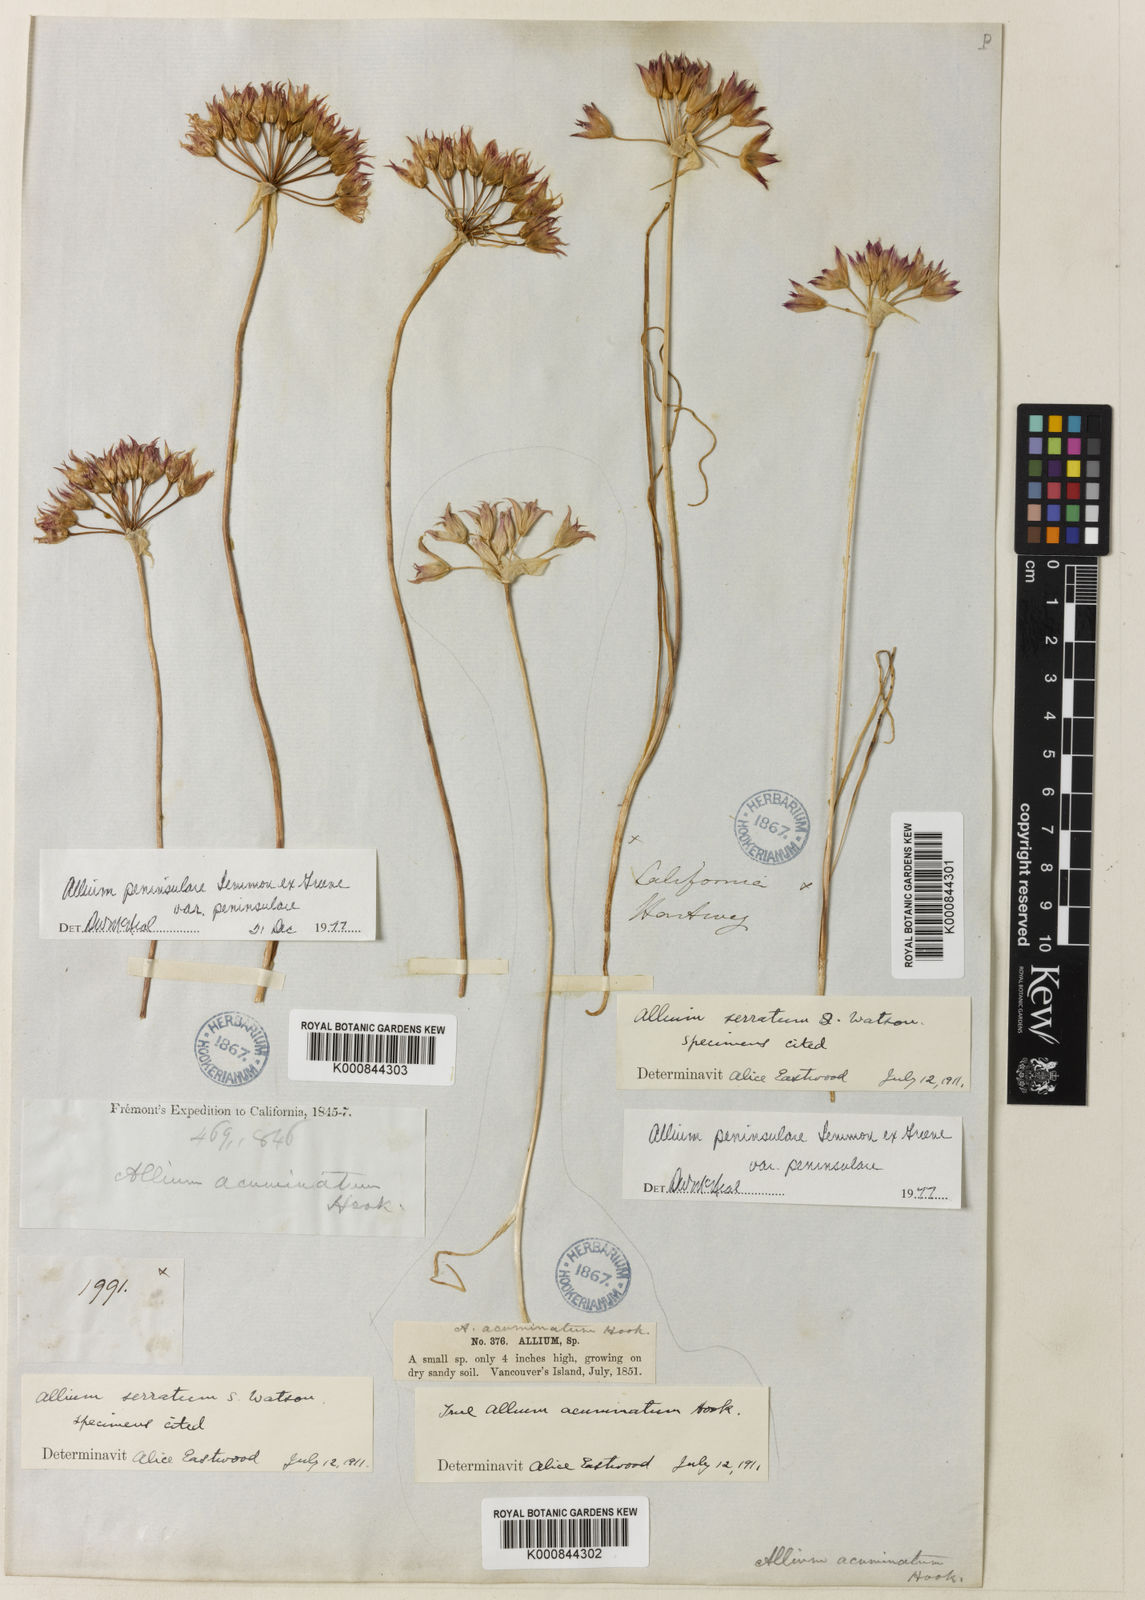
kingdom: Plantae
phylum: Tracheophyta
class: Liliopsida
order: Asparagales
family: Amaryllidaceae
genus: Allium
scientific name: Allium peninsulare
